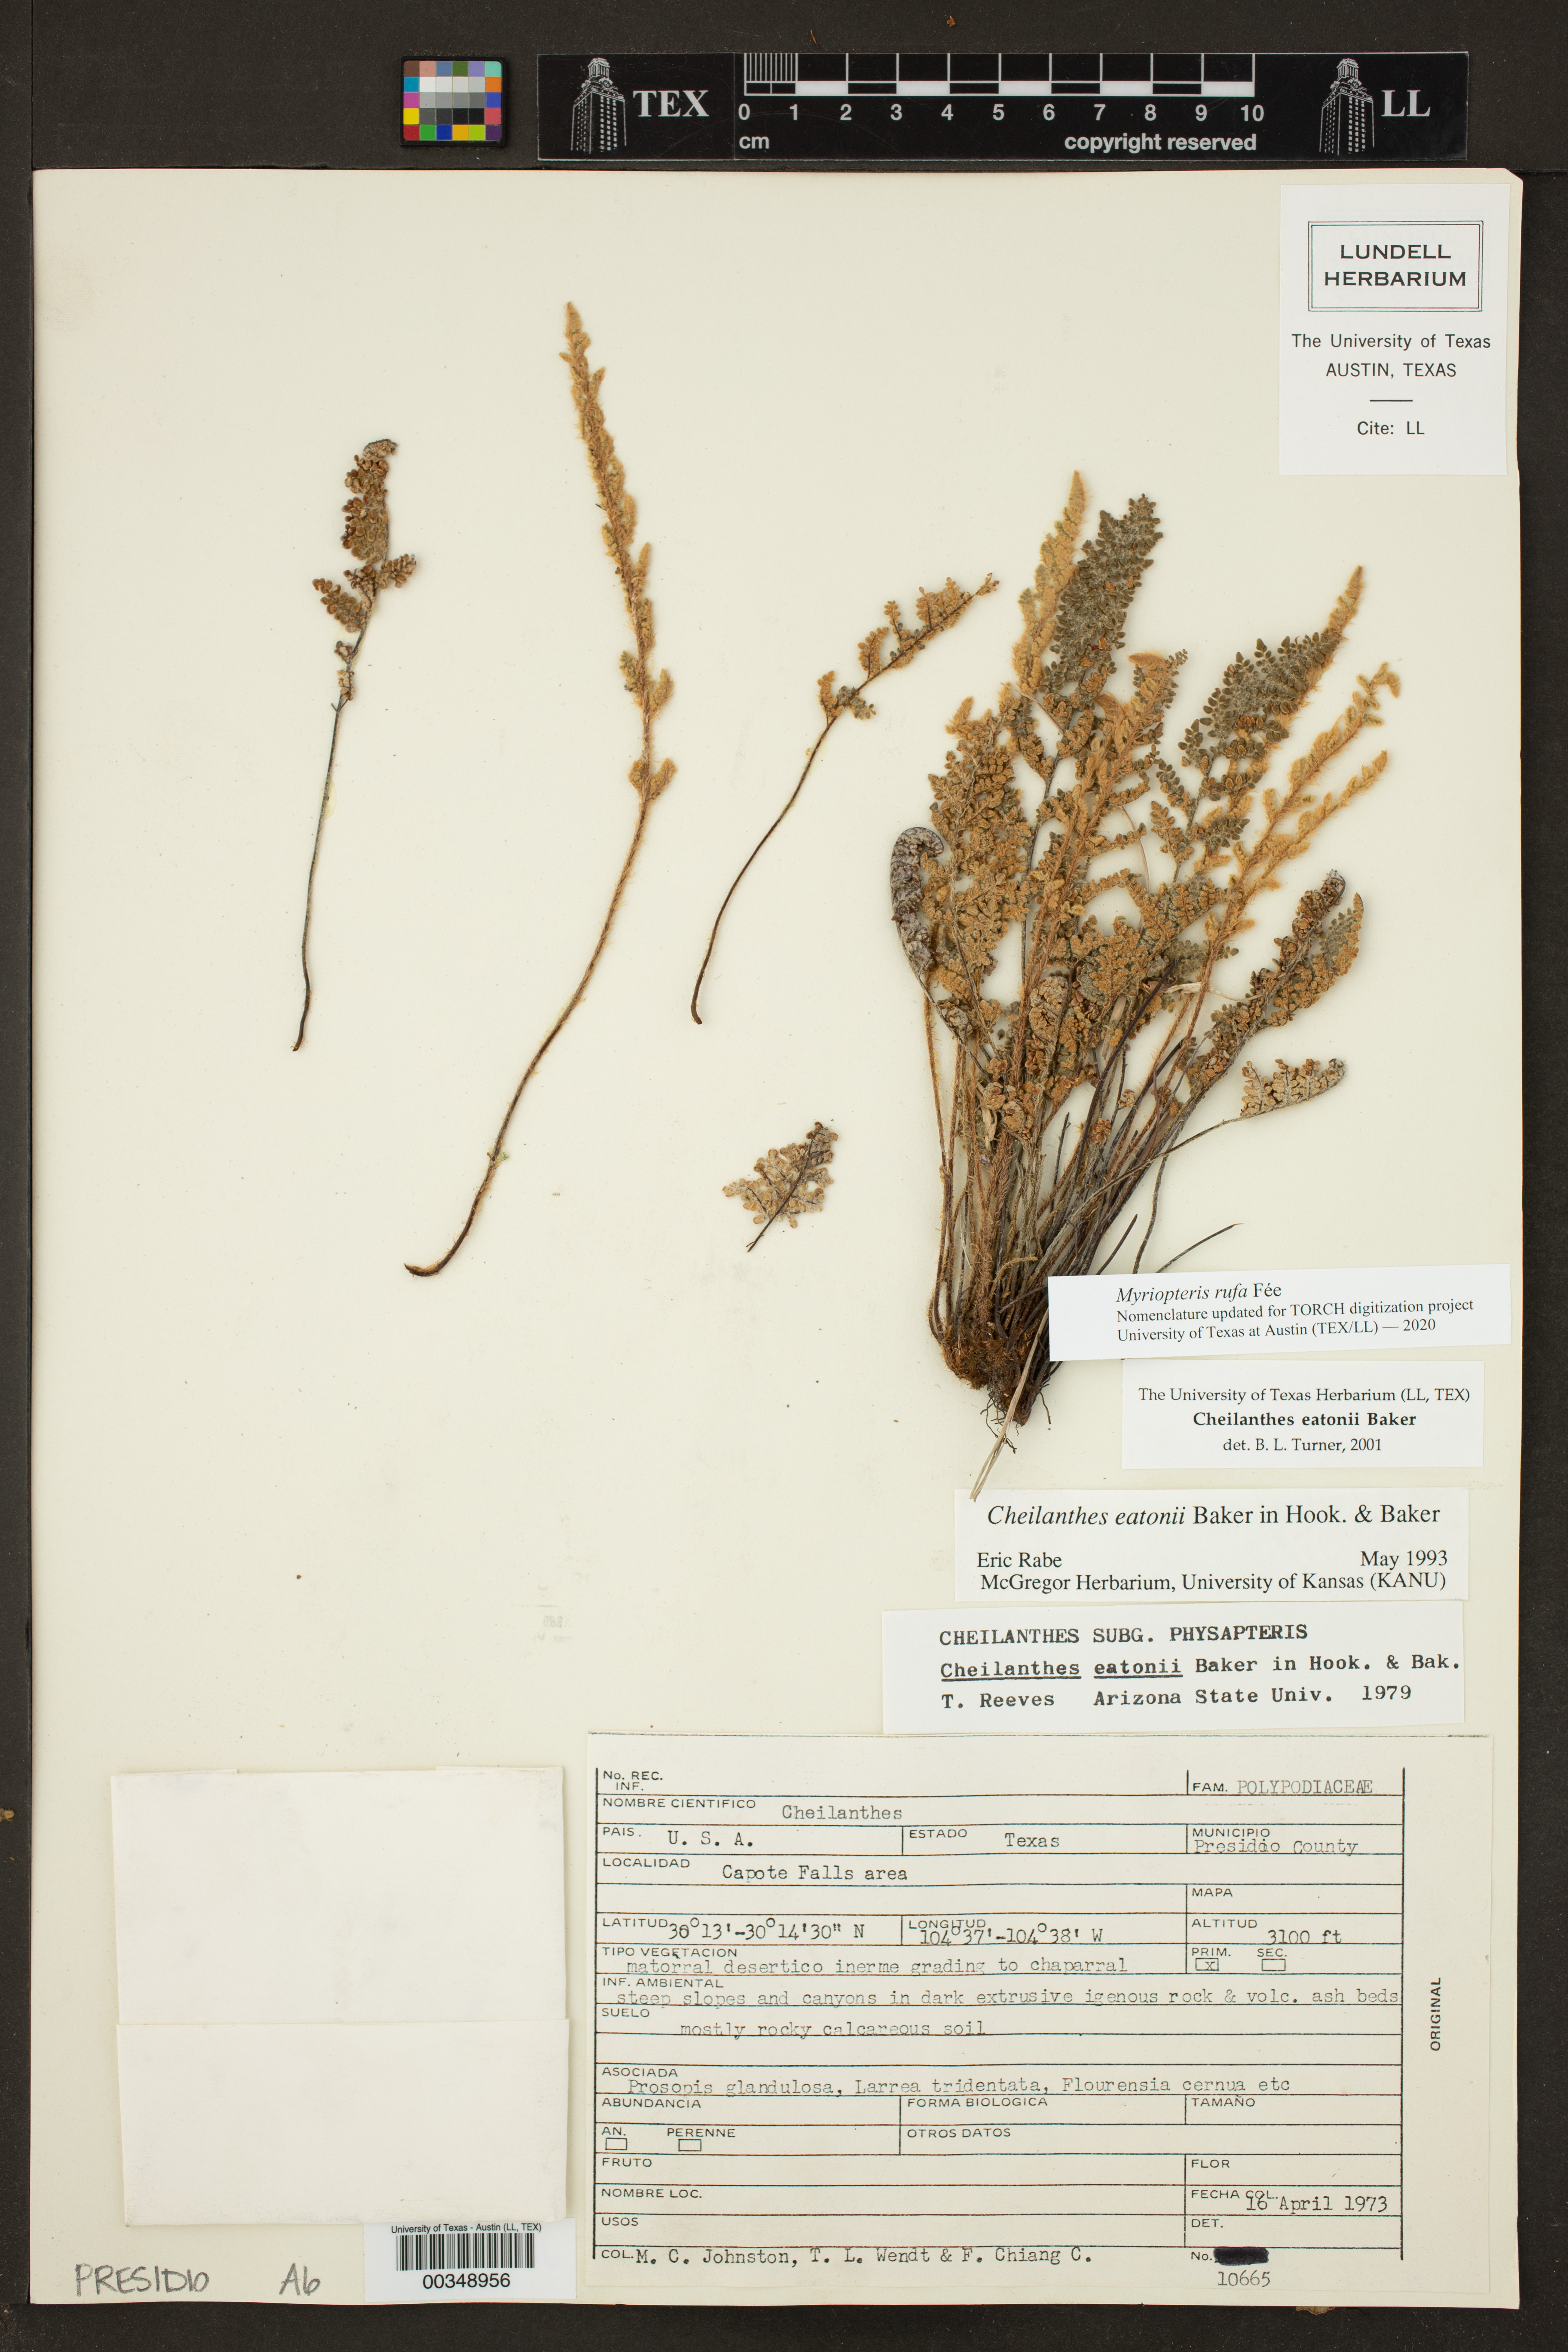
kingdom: Plantae
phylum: Tracheophyta
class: Polypodiopsida
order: Polypodiales
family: Pteridaceae
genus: Myriopteris
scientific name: Myriopteris rufa
